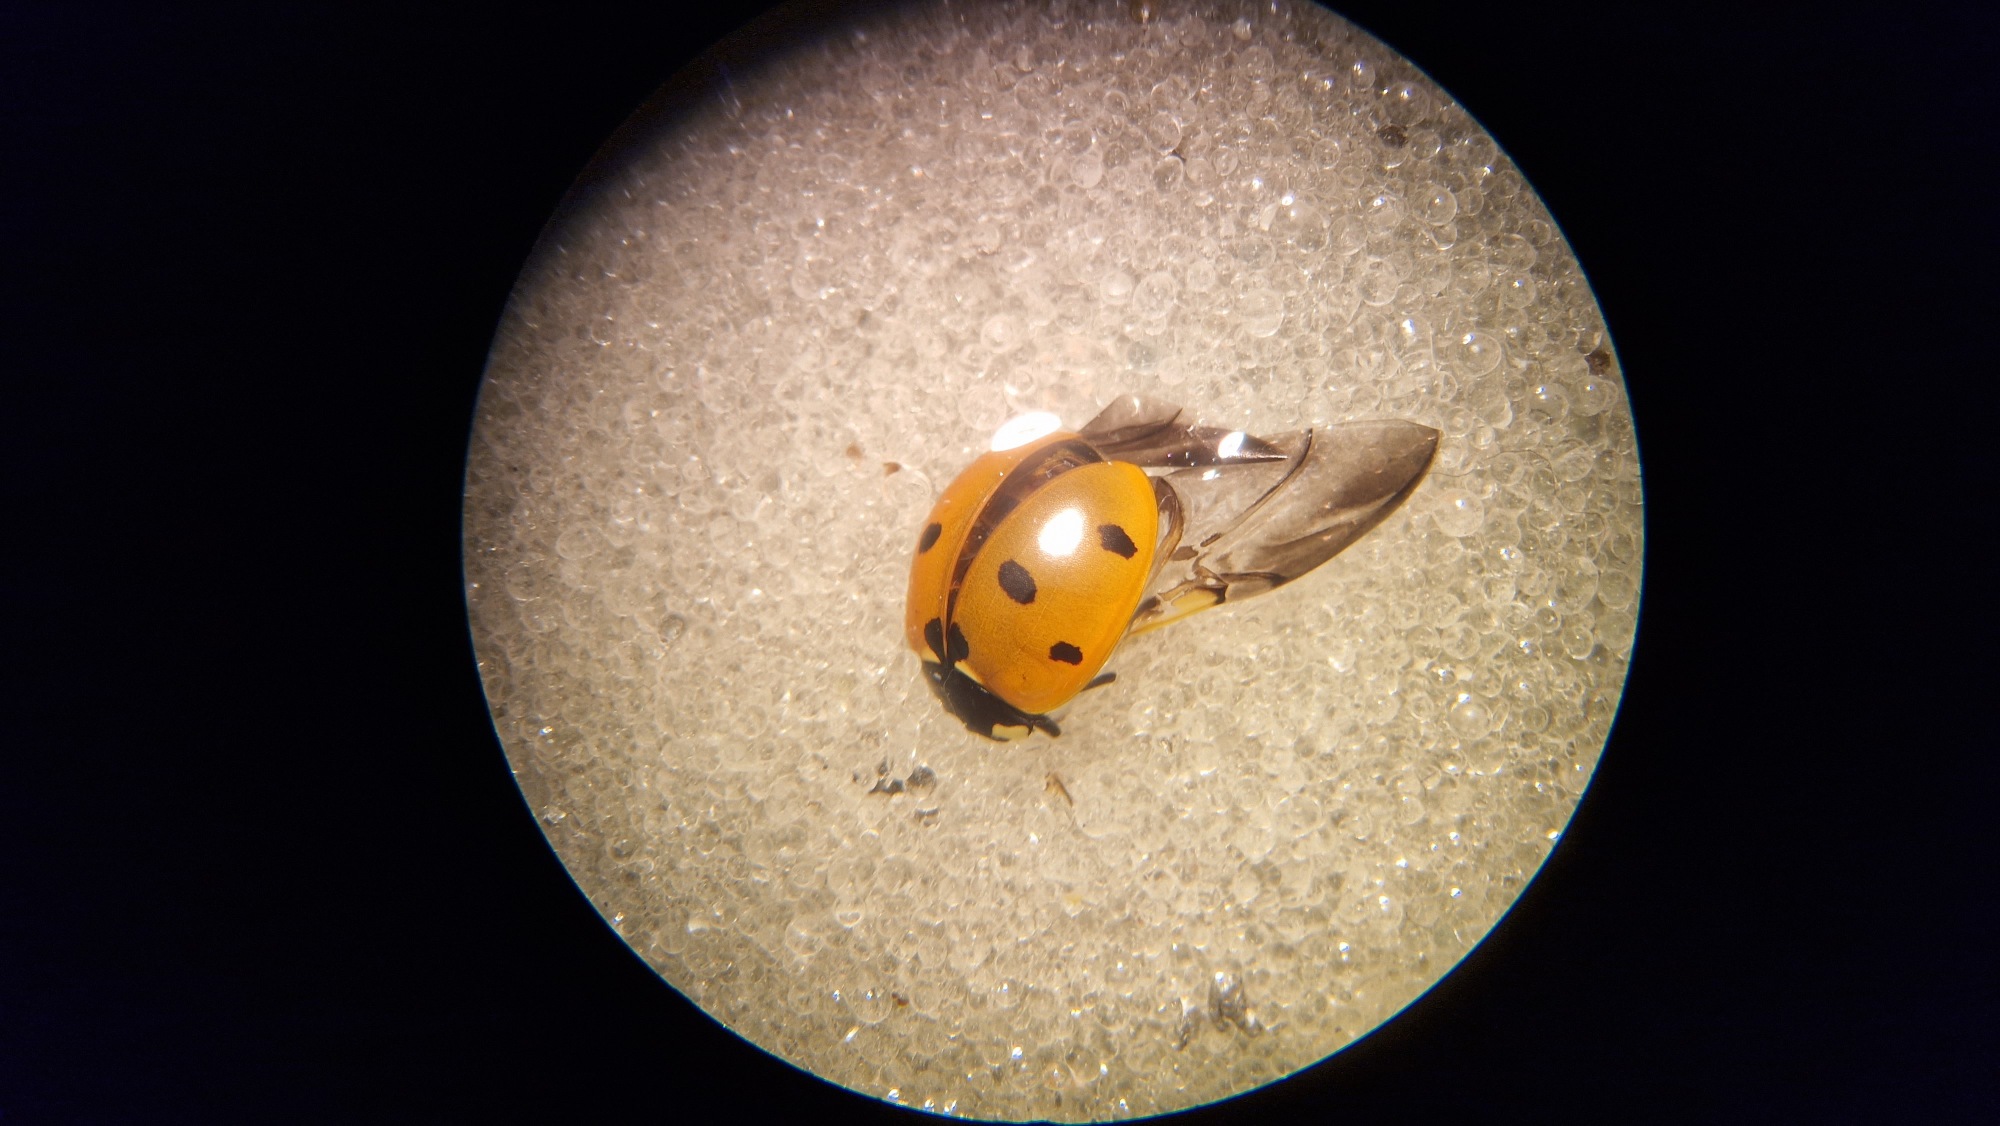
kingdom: Animalia
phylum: Arthropoda
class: Insecta
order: Coleoptera
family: Coccinellidae
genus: Coccinella
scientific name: Coccinella septempunctata
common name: Syvplettet mariehøne
